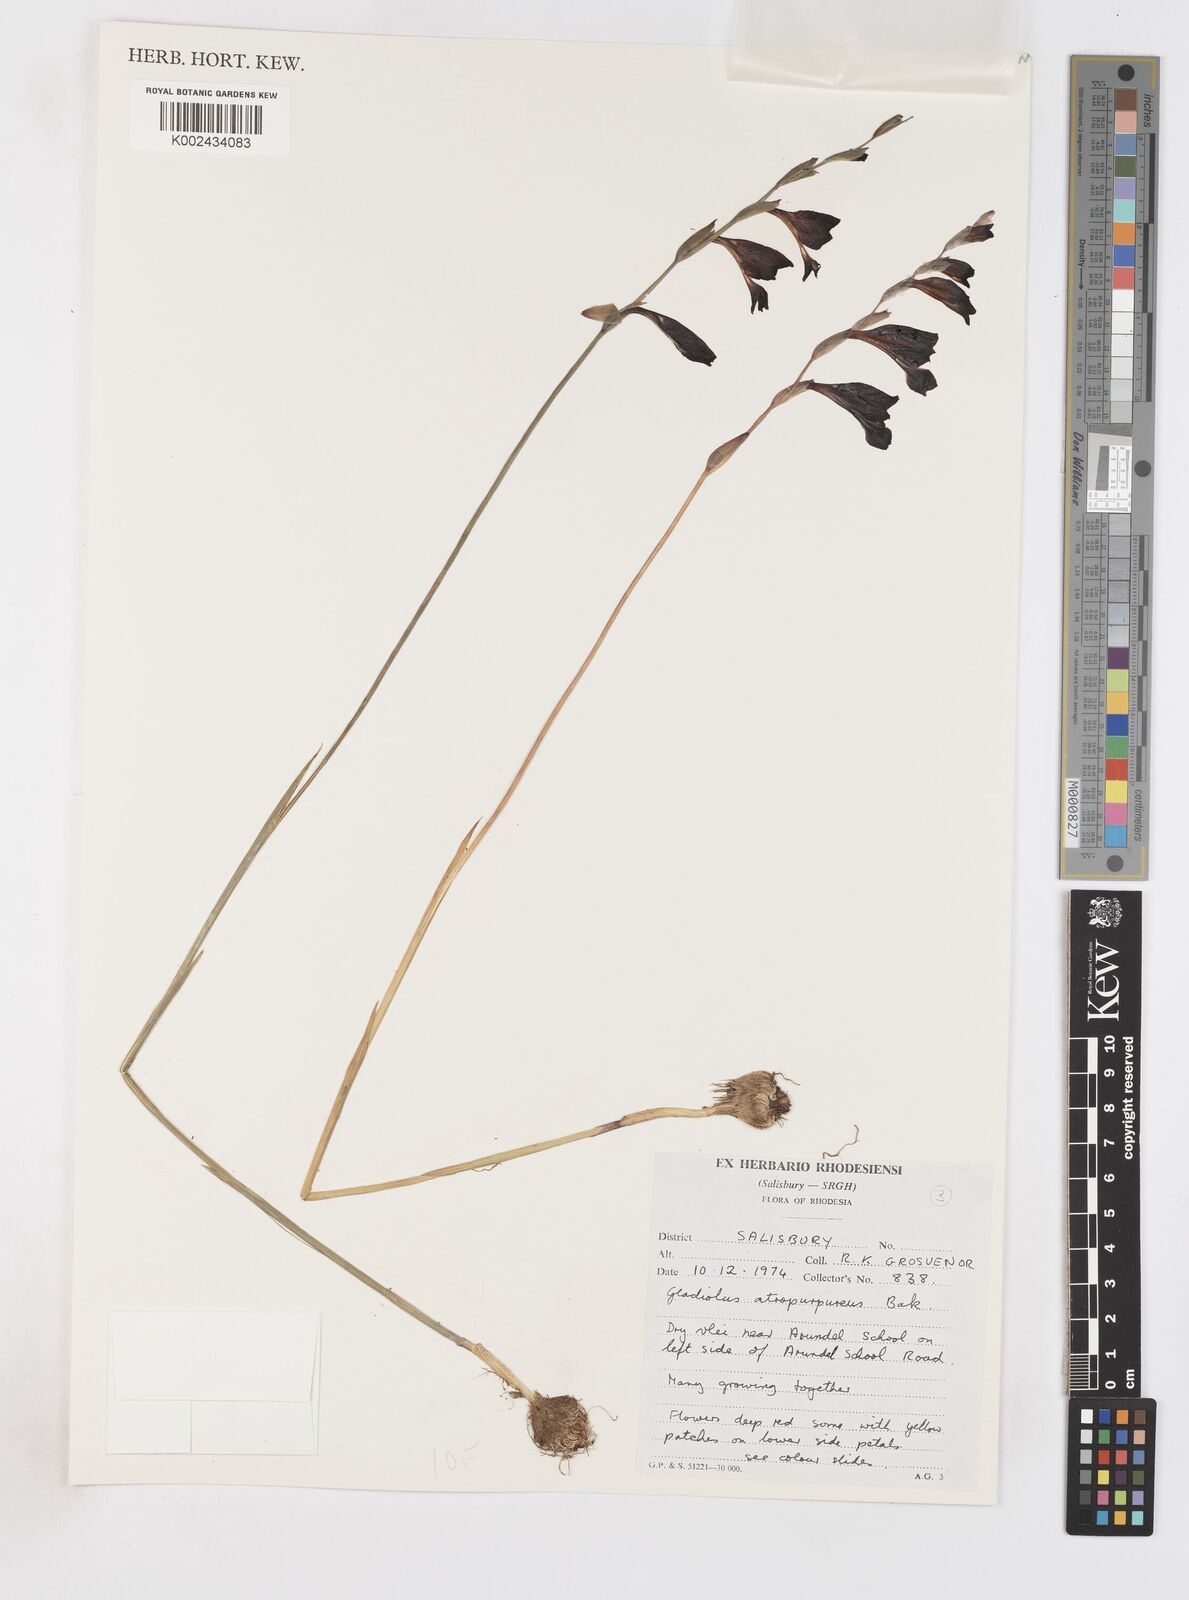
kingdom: Plantae
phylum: Tracheophyta
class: Liliopsida
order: Asparagales
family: Iridaceae
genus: Gladiolus
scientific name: Gladiolus atropurpureus
